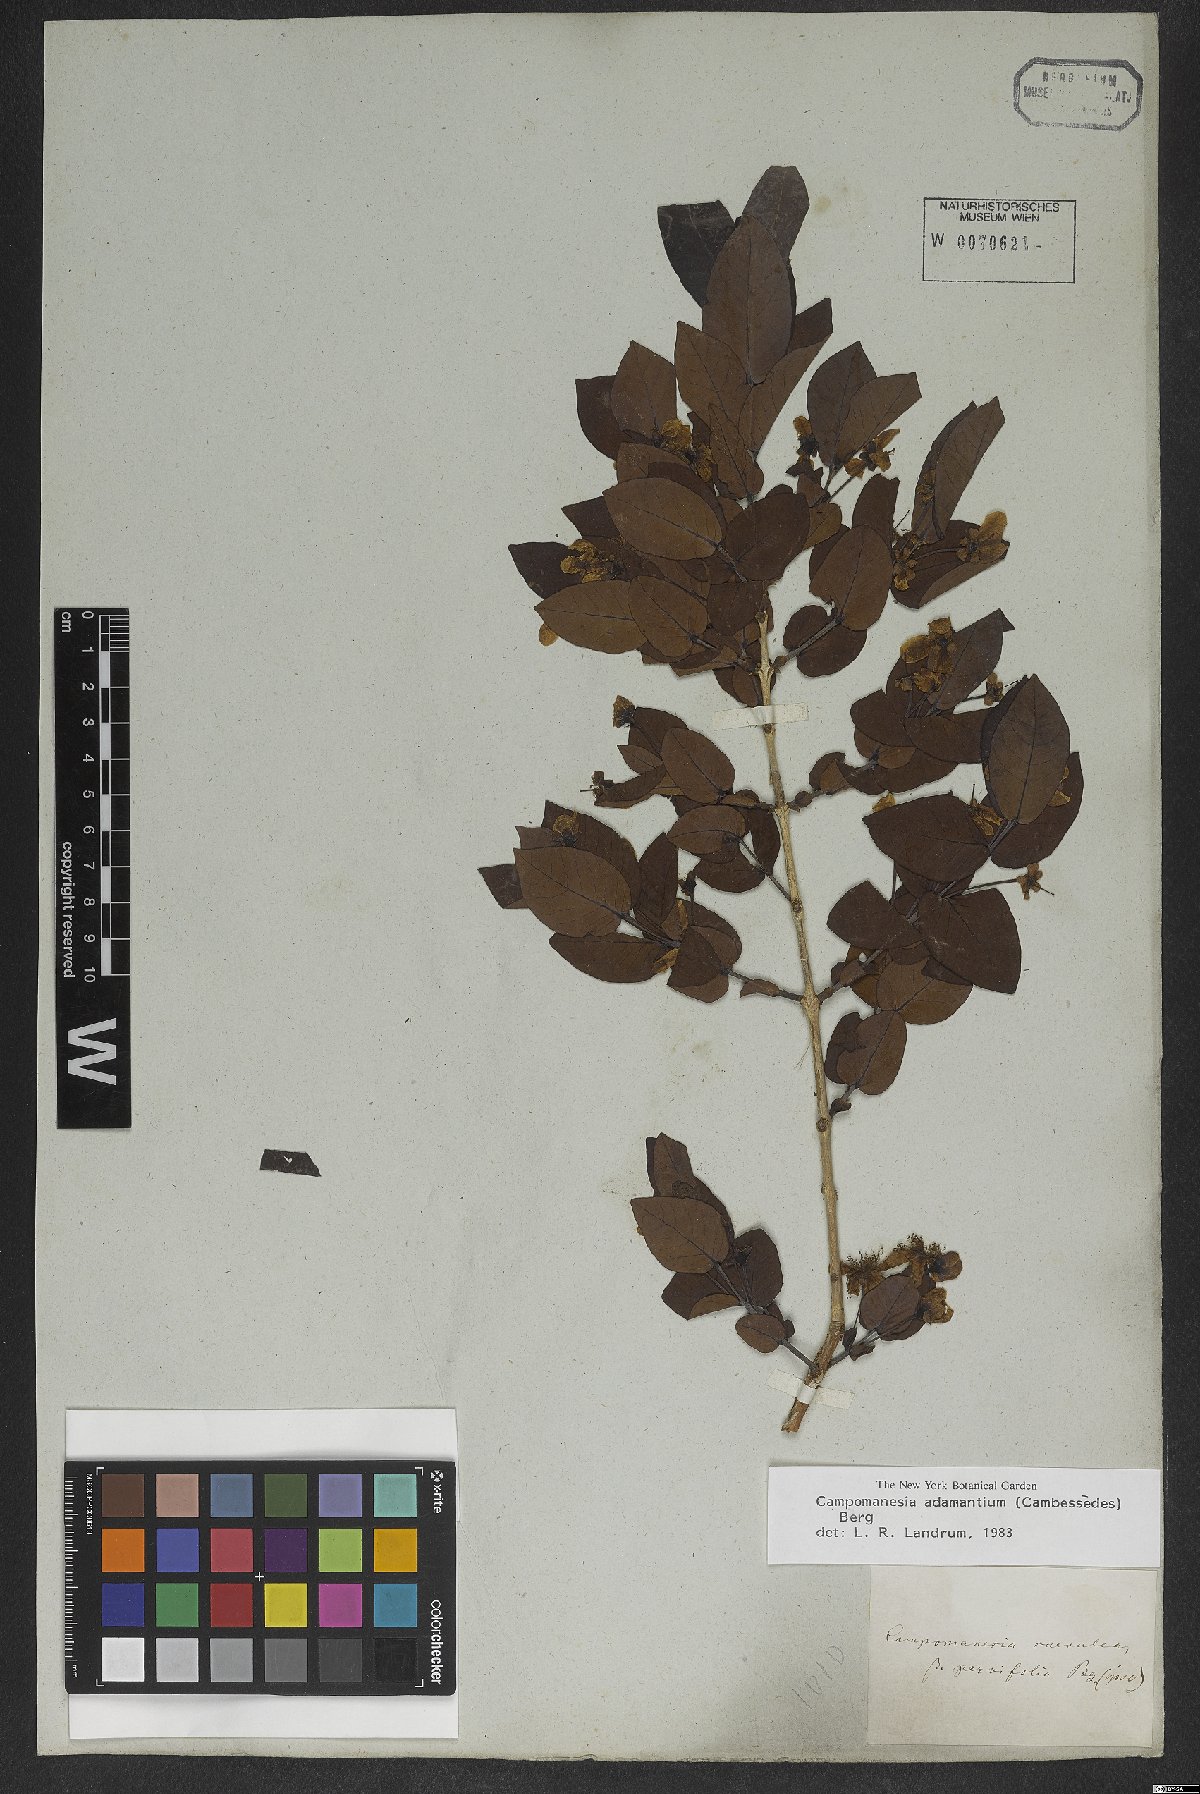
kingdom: Plantae
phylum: Tracheophyta
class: Magnoliopsida
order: Myrtales
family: Myrtaceae
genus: Campomanesia
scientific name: Campomanesia adamantium
